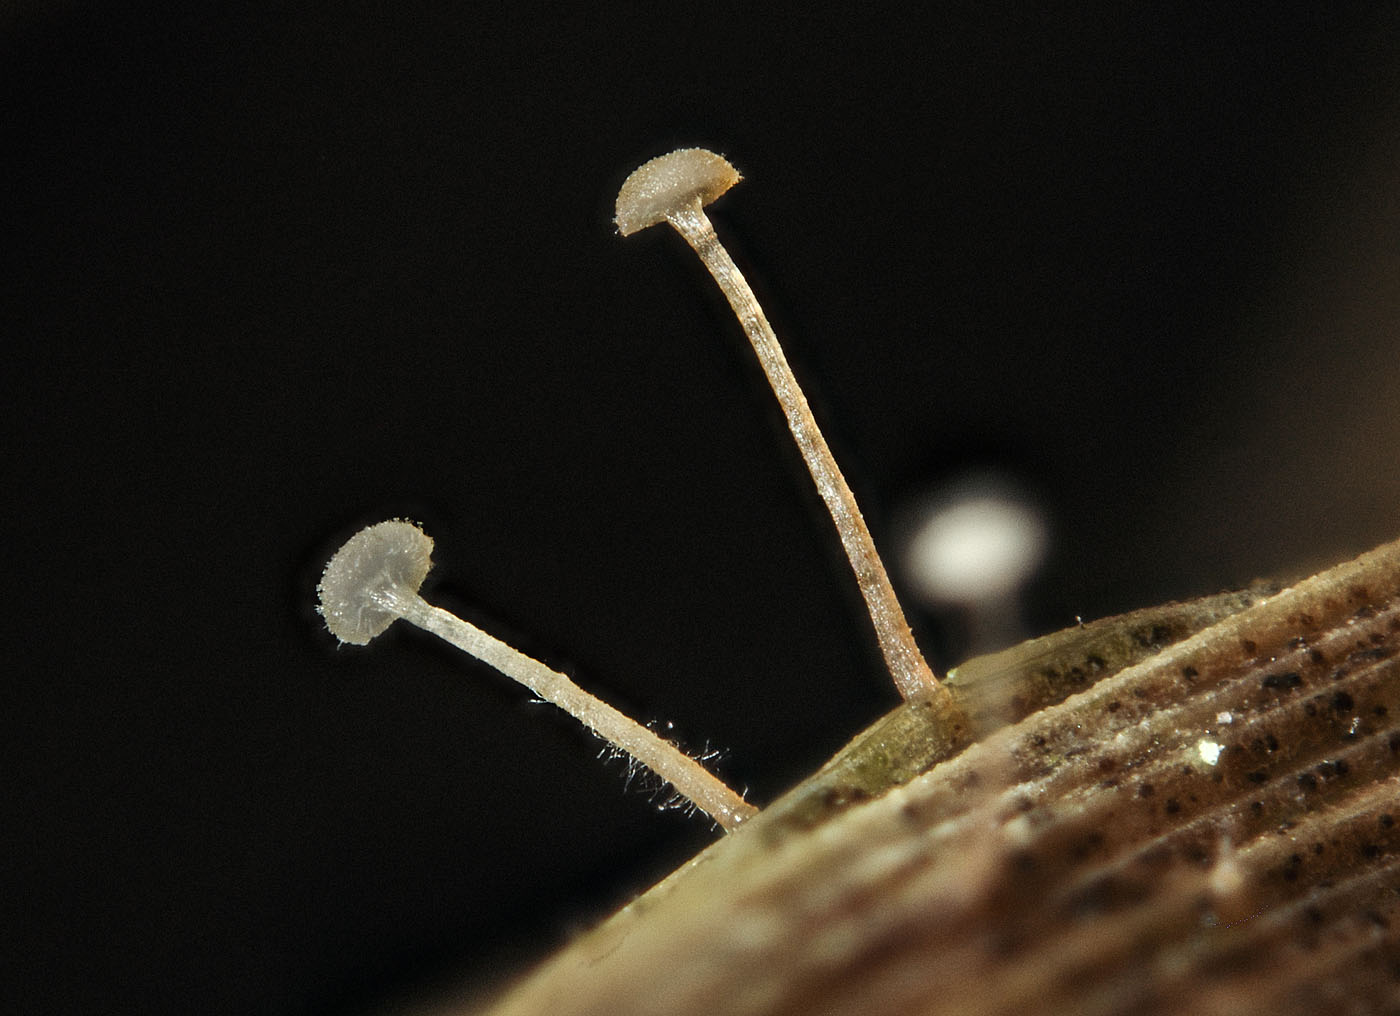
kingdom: Fungi
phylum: Basidiomycota
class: Agaricomycetes
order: Agaricales
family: Typhulaceae
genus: Typhula
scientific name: Typhula brunneola
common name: sømkølle
